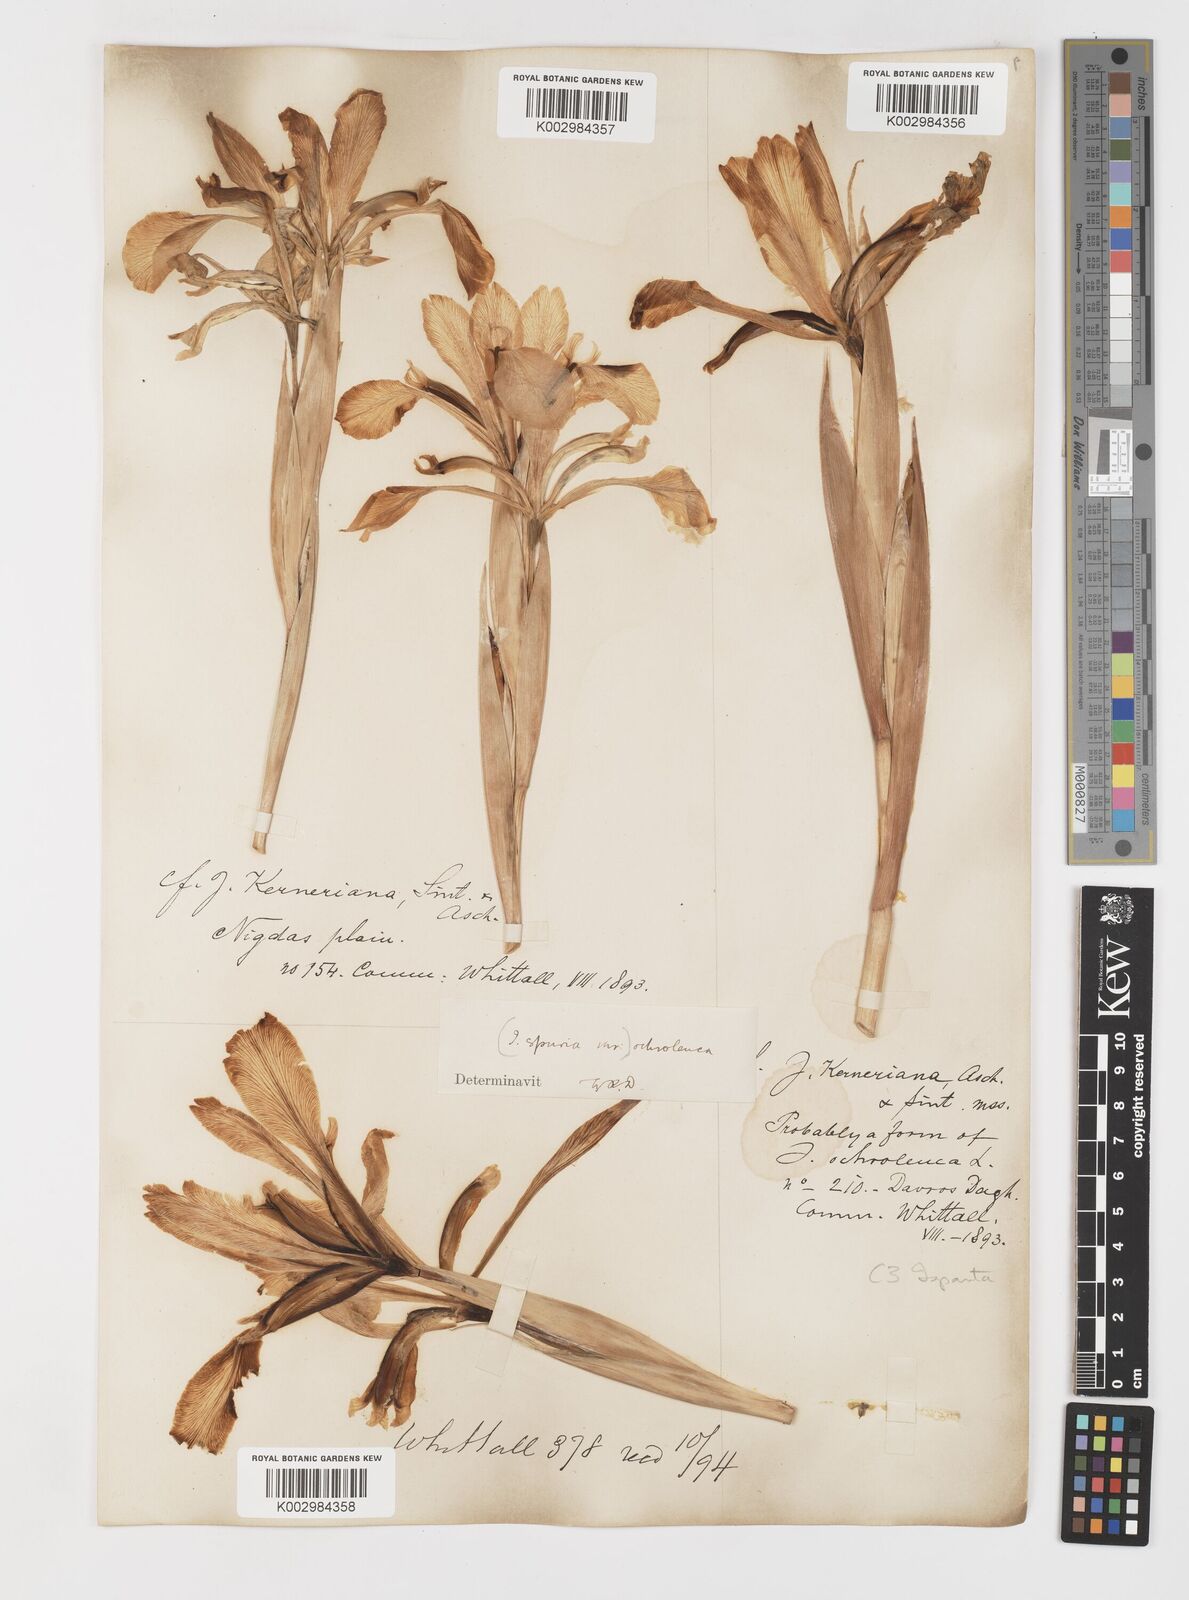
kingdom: Plantae
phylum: Tracheophyta
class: Liliopsida
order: Asparagales
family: Iridaceae
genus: Iris
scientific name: Iris orientalis
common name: Turkish iris
